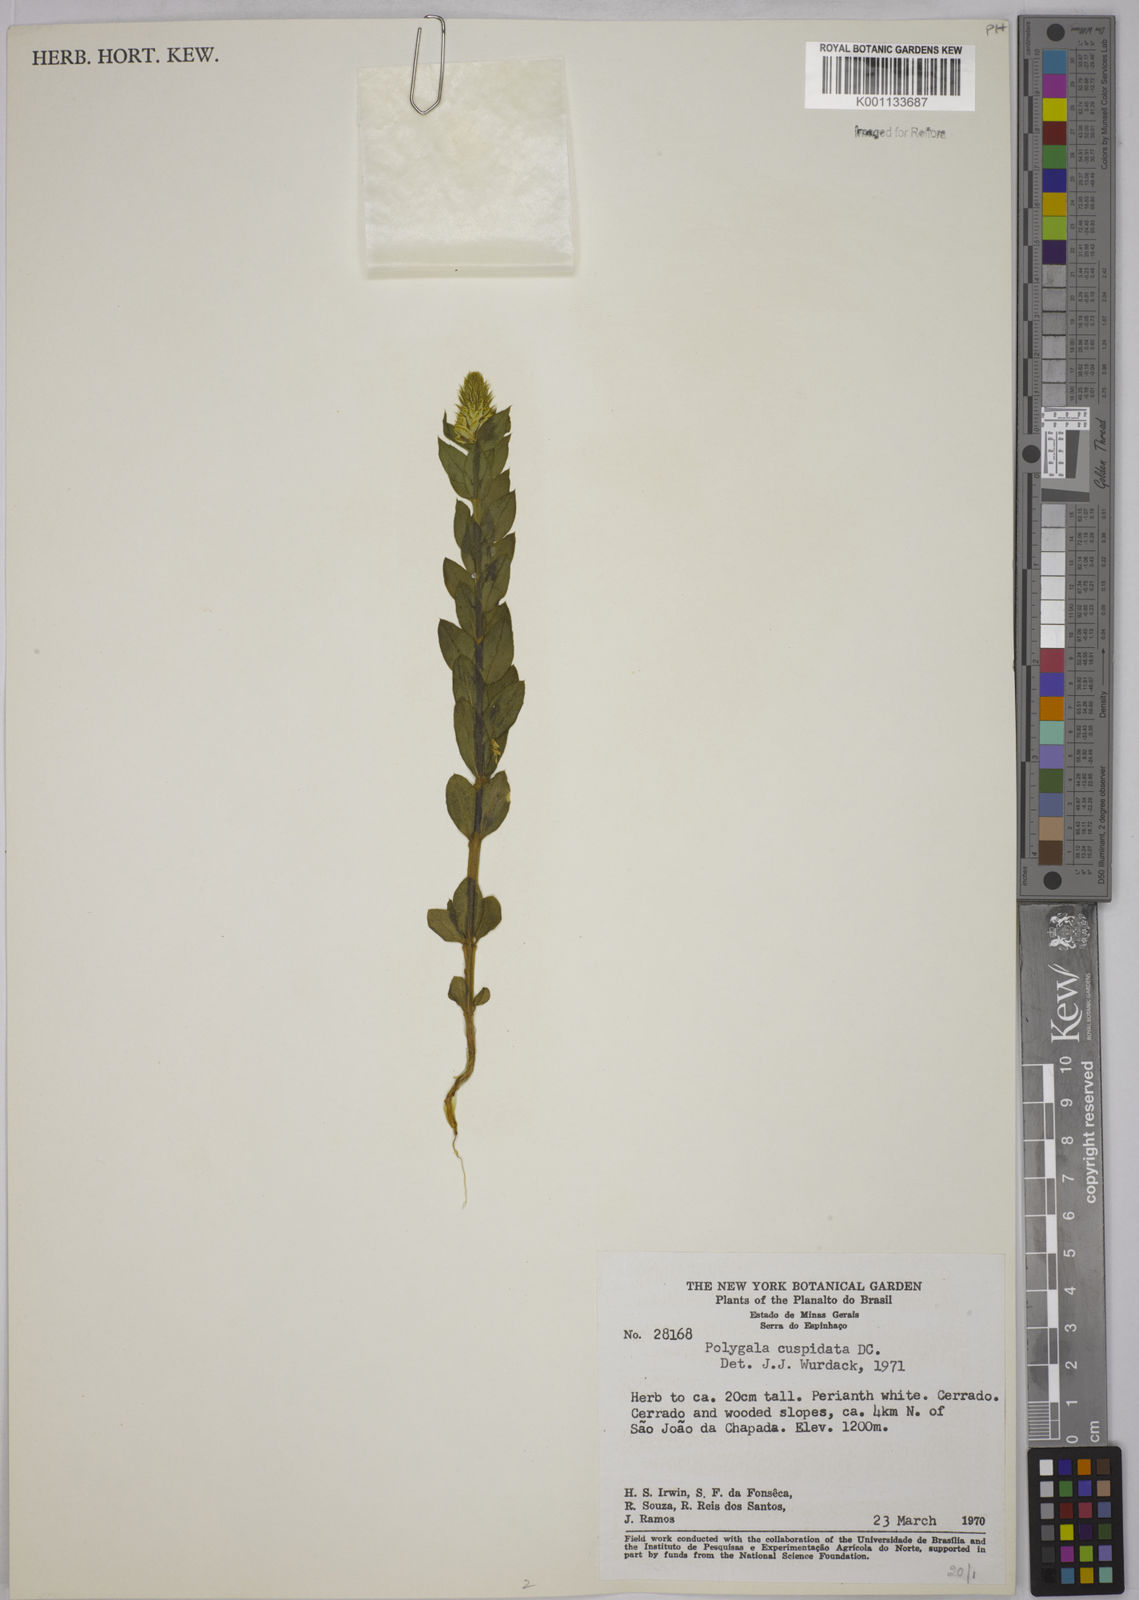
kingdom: Plantae
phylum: Tracheophyta
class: Magnoliopsida
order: Fabales
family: Polygalaceae
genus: Polygala
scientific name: Polygala cuspidata
